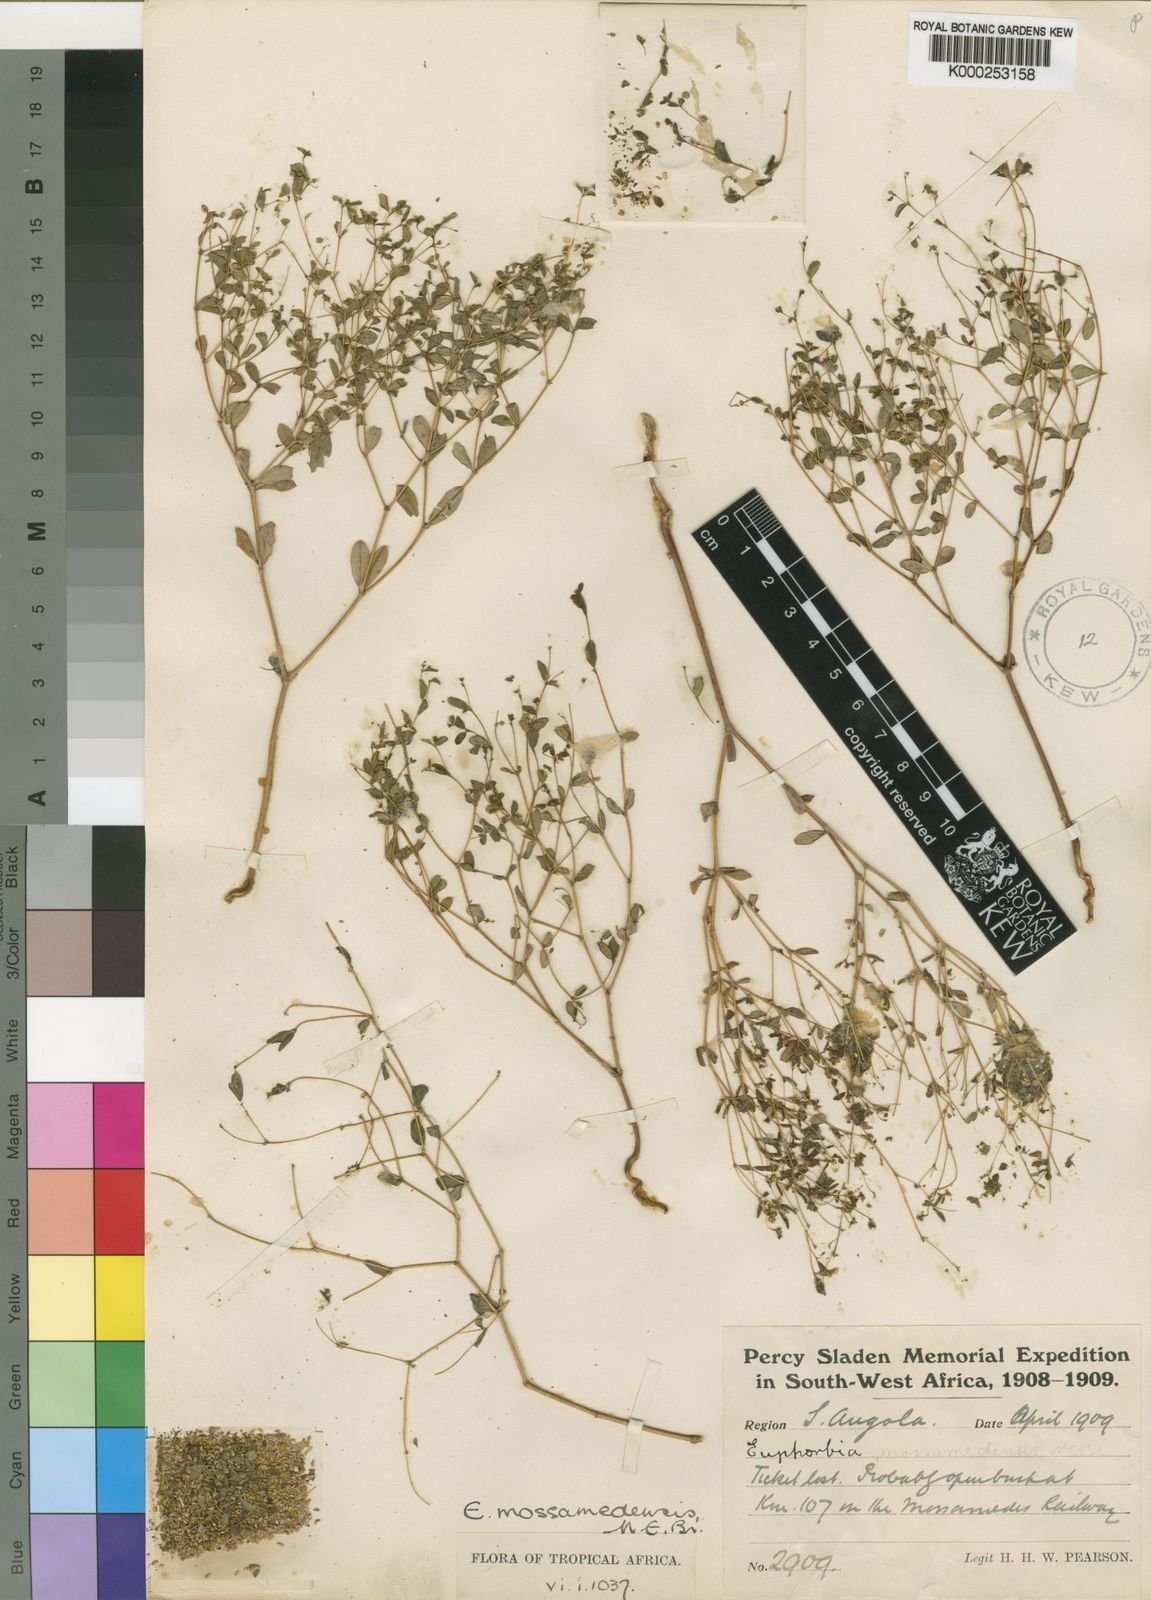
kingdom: Plantae
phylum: Tracheophyta
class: Magnoliopsida
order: Malpighiales
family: Euphorbiaceae
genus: Euphorbia
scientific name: Euphorbia mossamedensis
